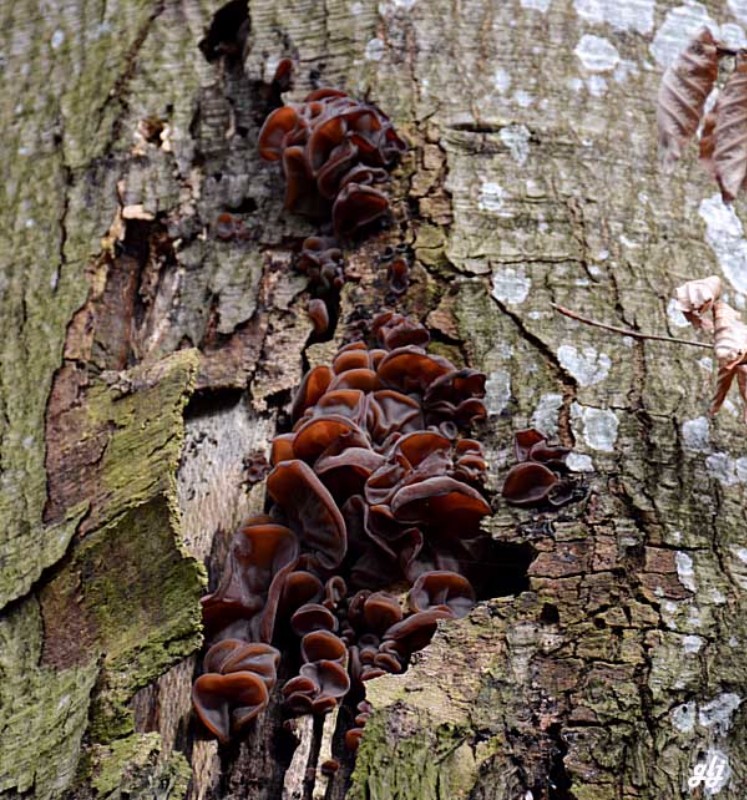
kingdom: Fungi
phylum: Basidiomycota
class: Agaricomycetes
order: Auriculariales
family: Auriculariaceae
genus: Auricularia
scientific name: Auricularia auricula-judae
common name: almindelig judasøre
